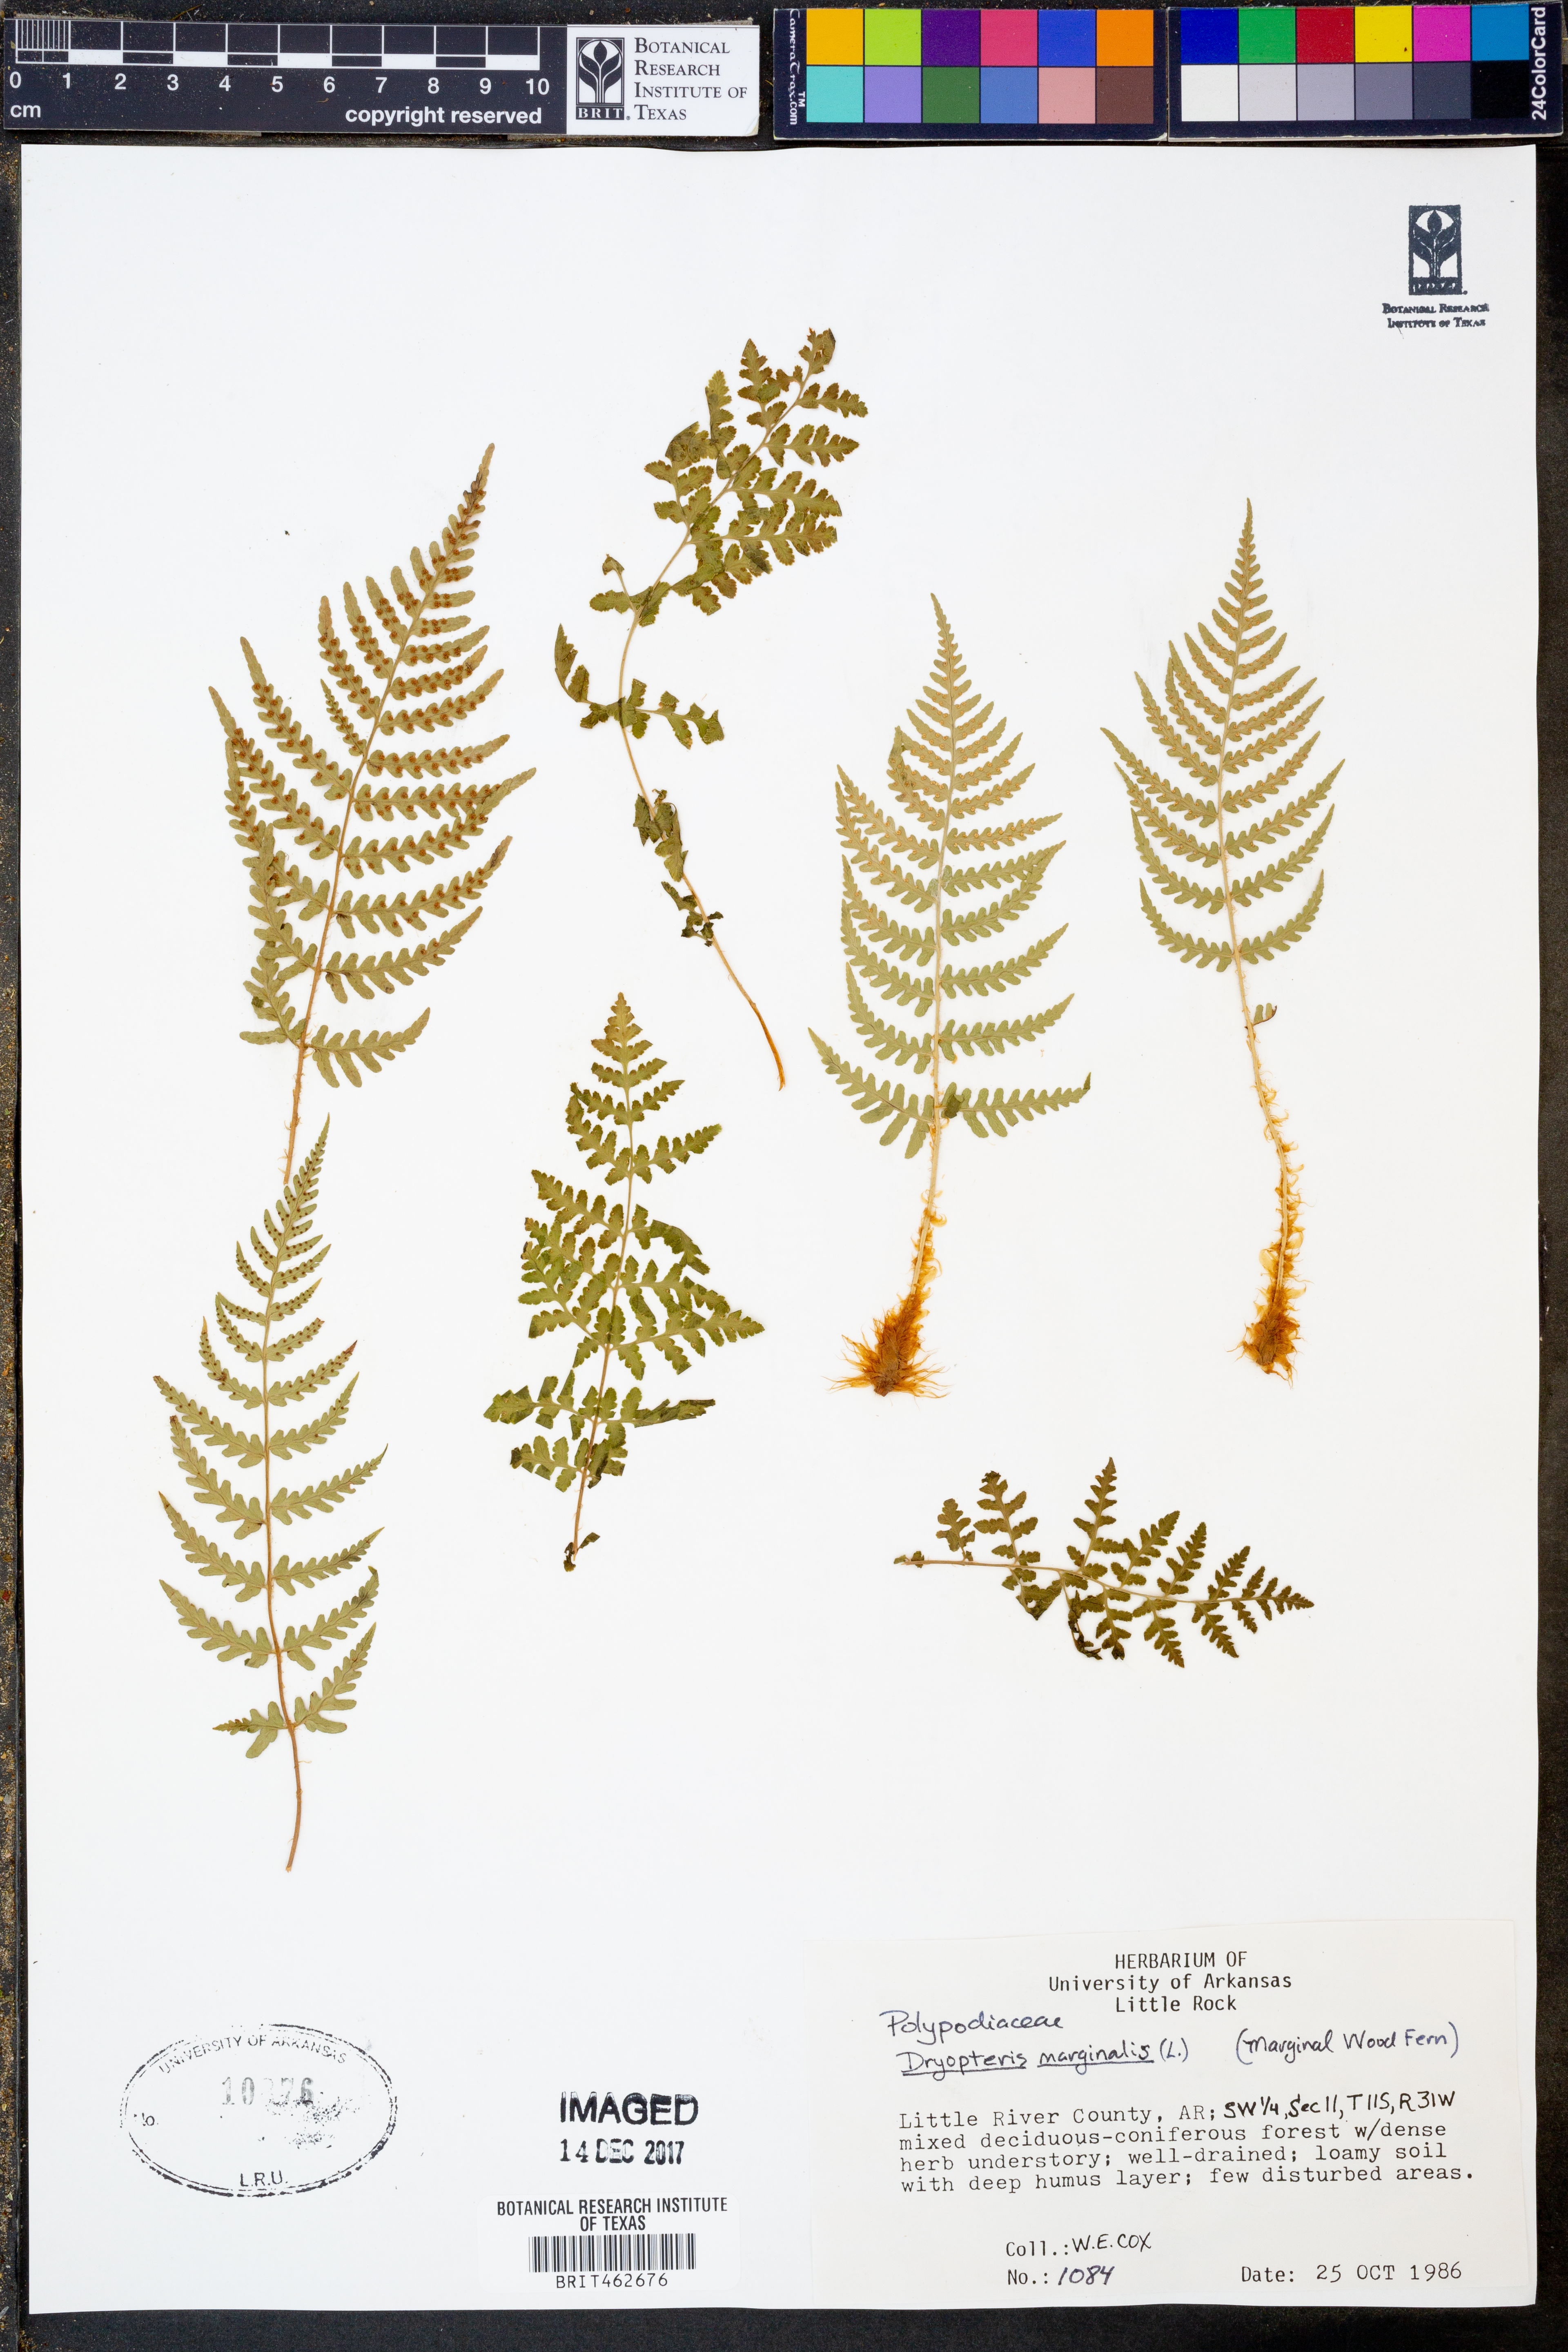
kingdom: Plantae
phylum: Tracheophyta
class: Polypodiopsida
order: Polypodiales
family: Dryopteridaceae
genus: Dryopteris
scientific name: Dryopteris marginalis
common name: Marginal wood fern
